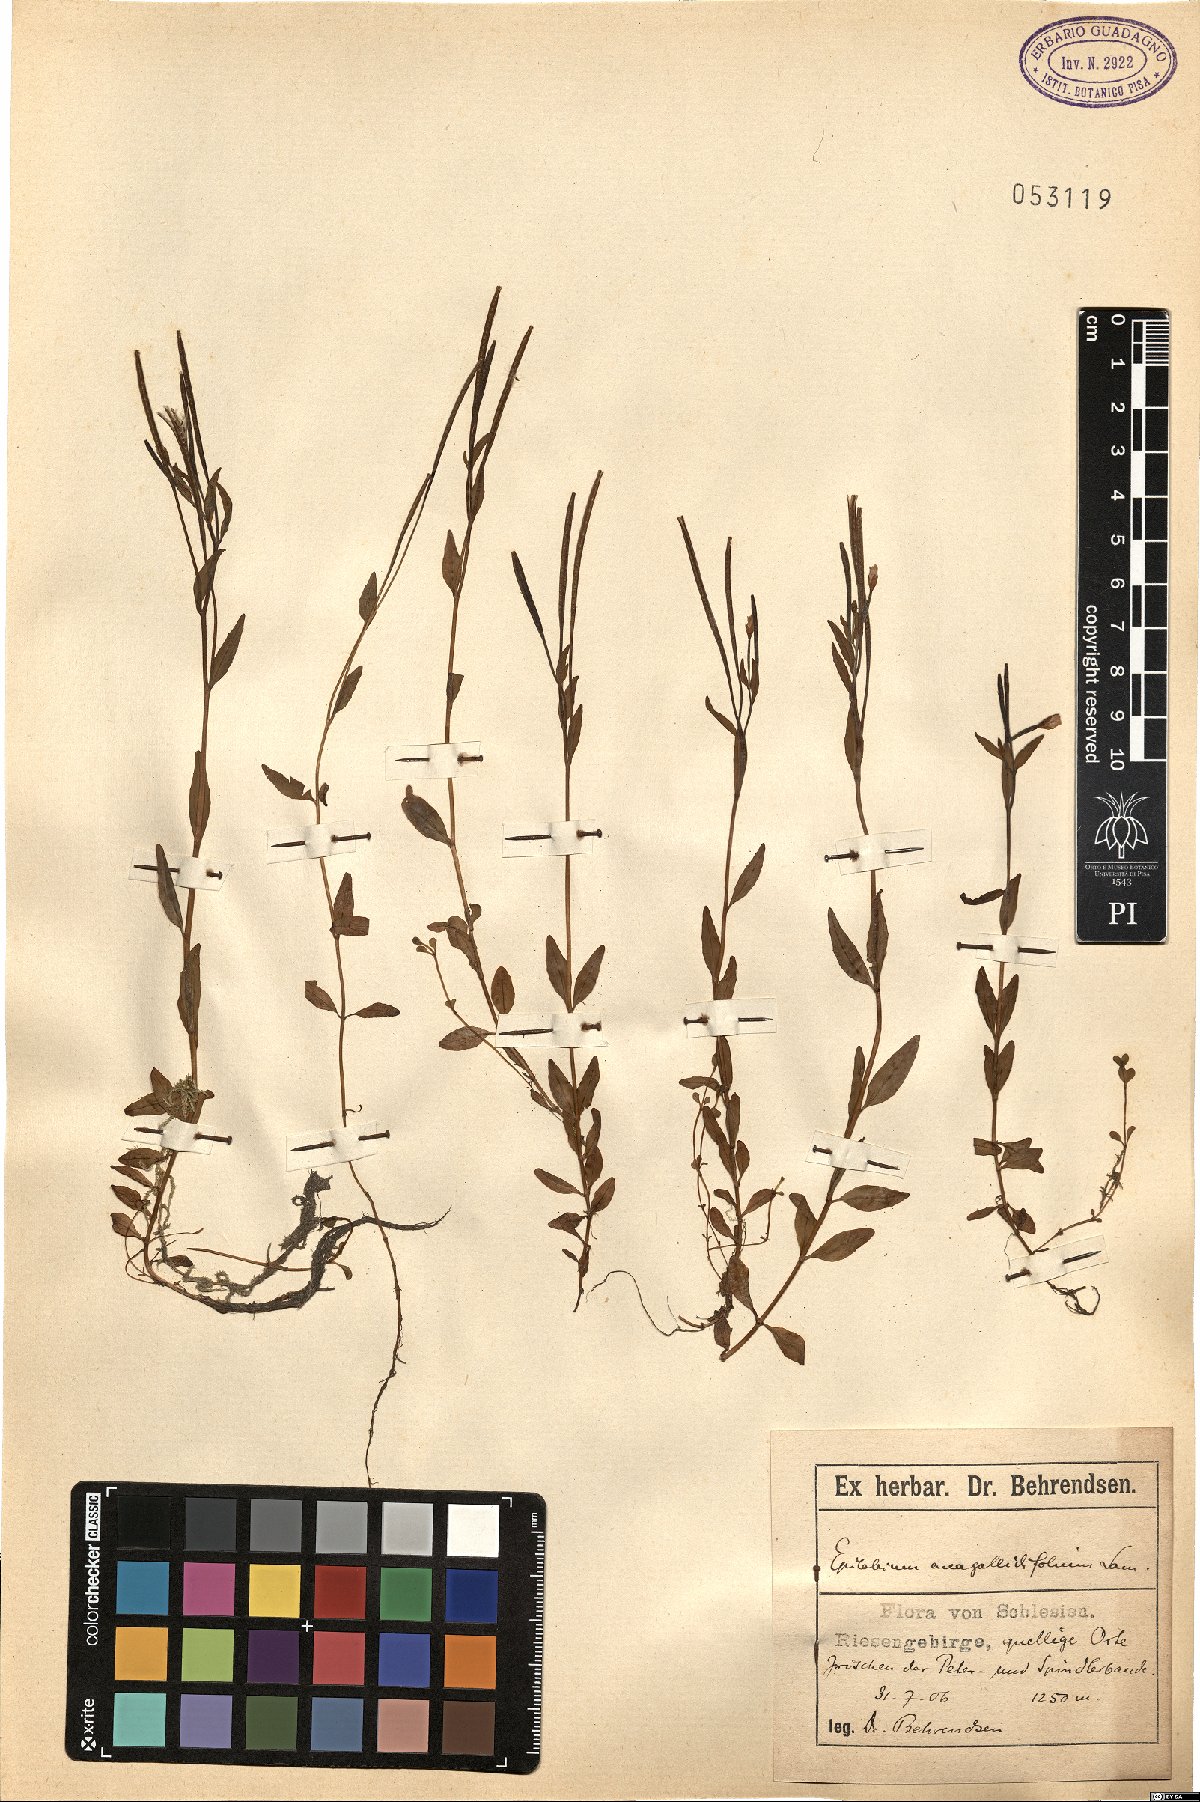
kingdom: Plantae
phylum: Tracheophyta
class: Magnoliopsida
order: Myrtales
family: Onagraceae
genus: Epilobium
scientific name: Epilobium anagallidifolium
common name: Alpine willowherb
